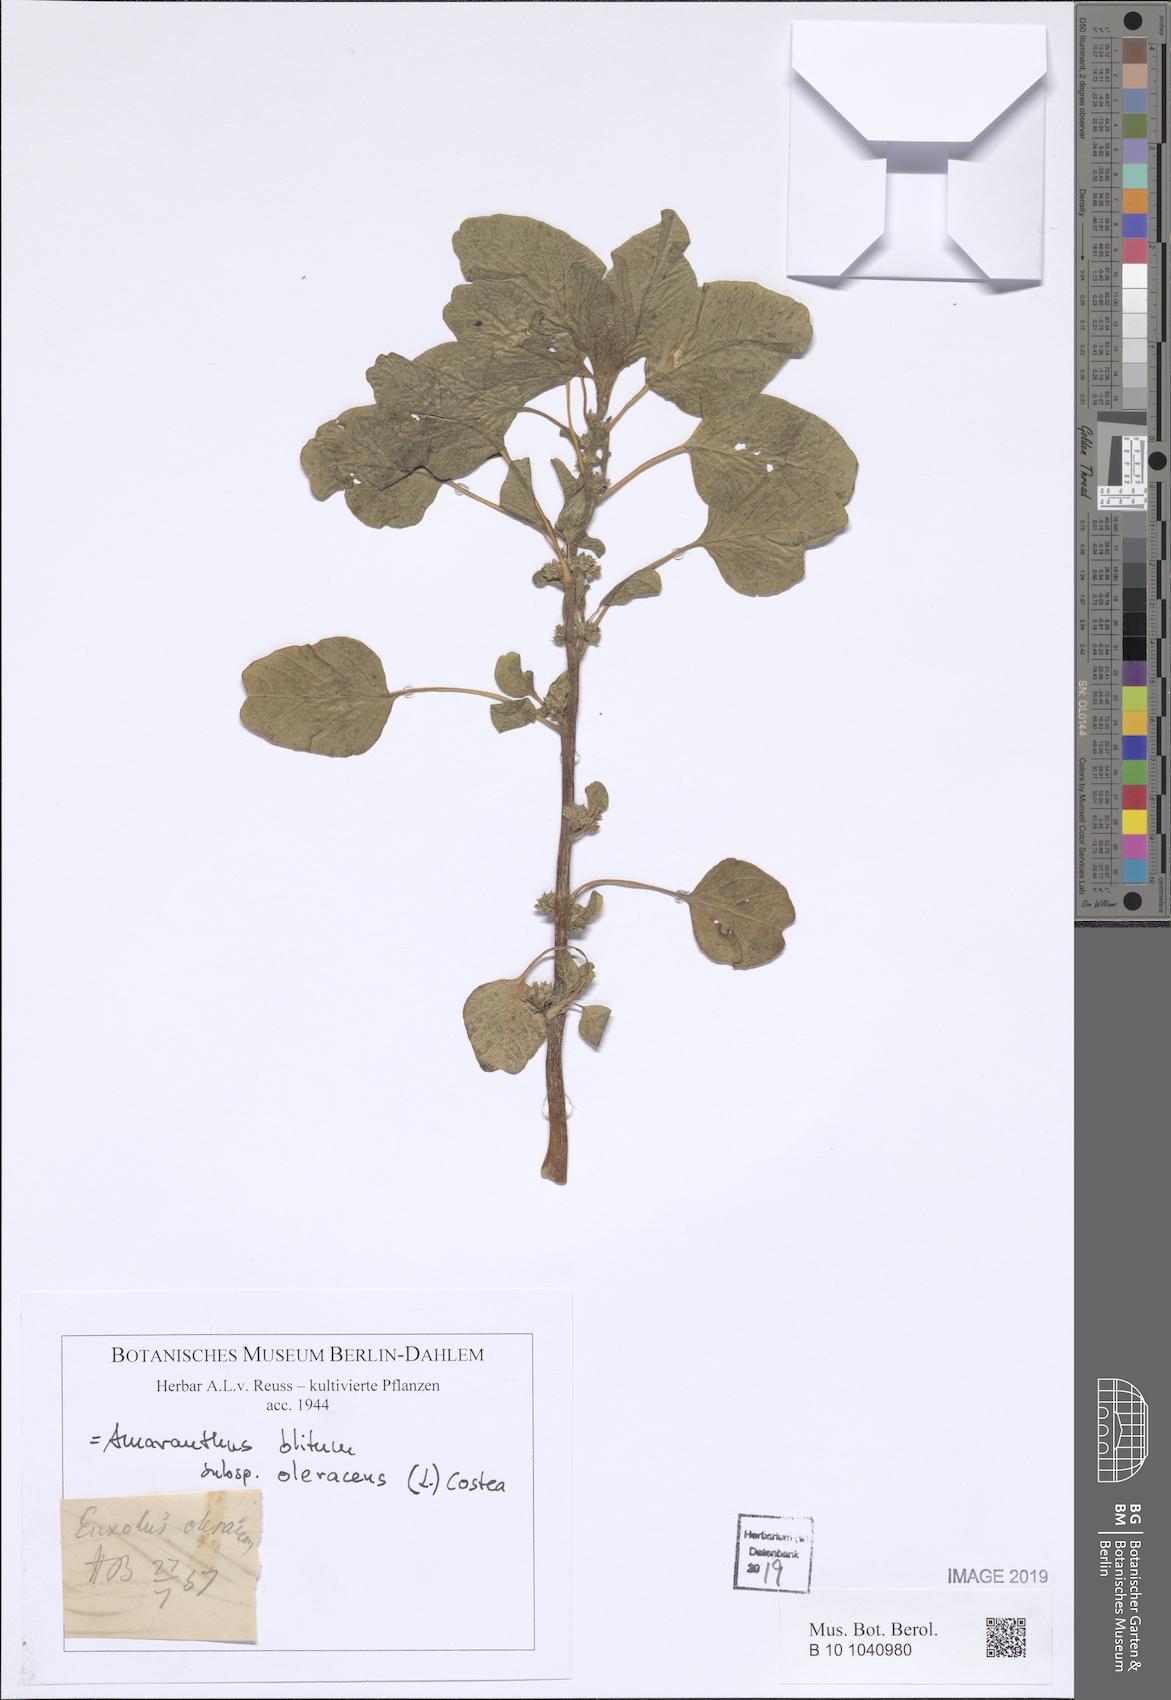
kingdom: Plantae
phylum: Tracheophyta
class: Magnoliopsida
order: Caryophyllales
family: Amaranthaceae
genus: Amaranthus
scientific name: Amaranthus blitum
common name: Purple amaranth
